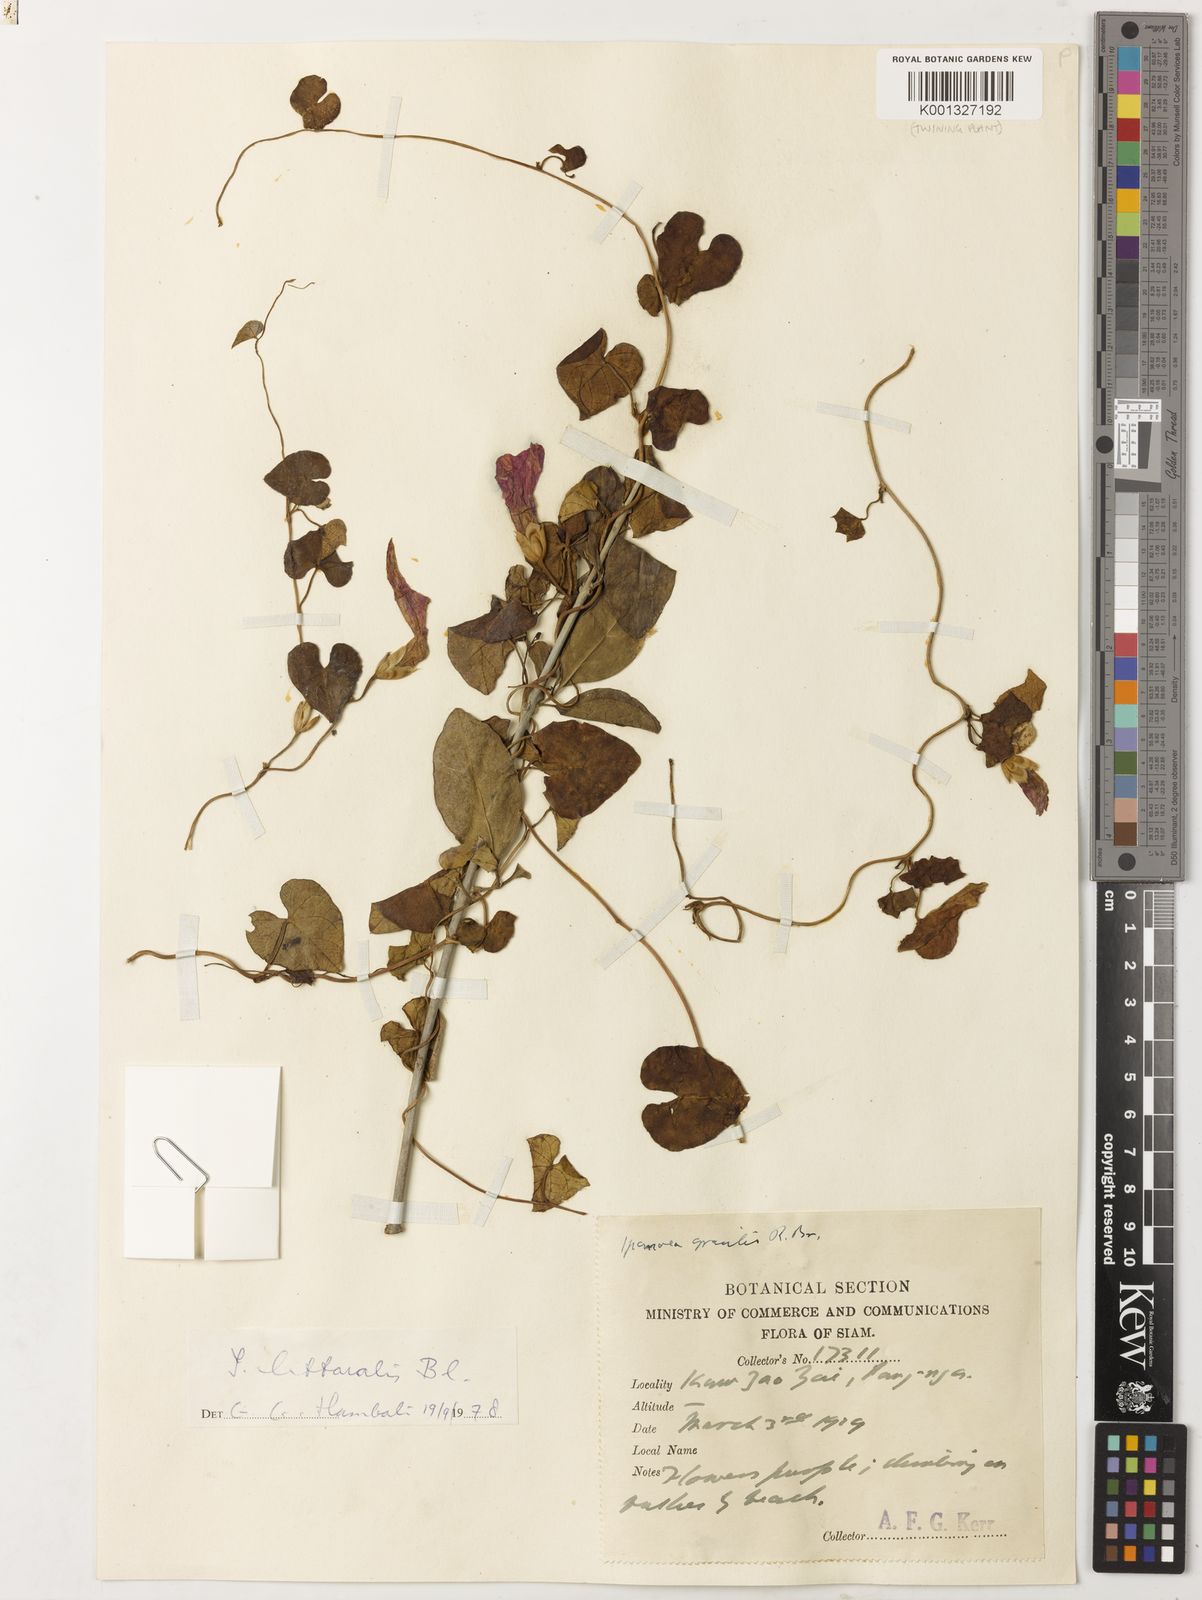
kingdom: Plantae
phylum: Tracheophyta
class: Magnoliopsida
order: Solanales
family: Convolvulaceae
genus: Ipomoea
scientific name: Ipomoea littoralis
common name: Coastal morning glory
